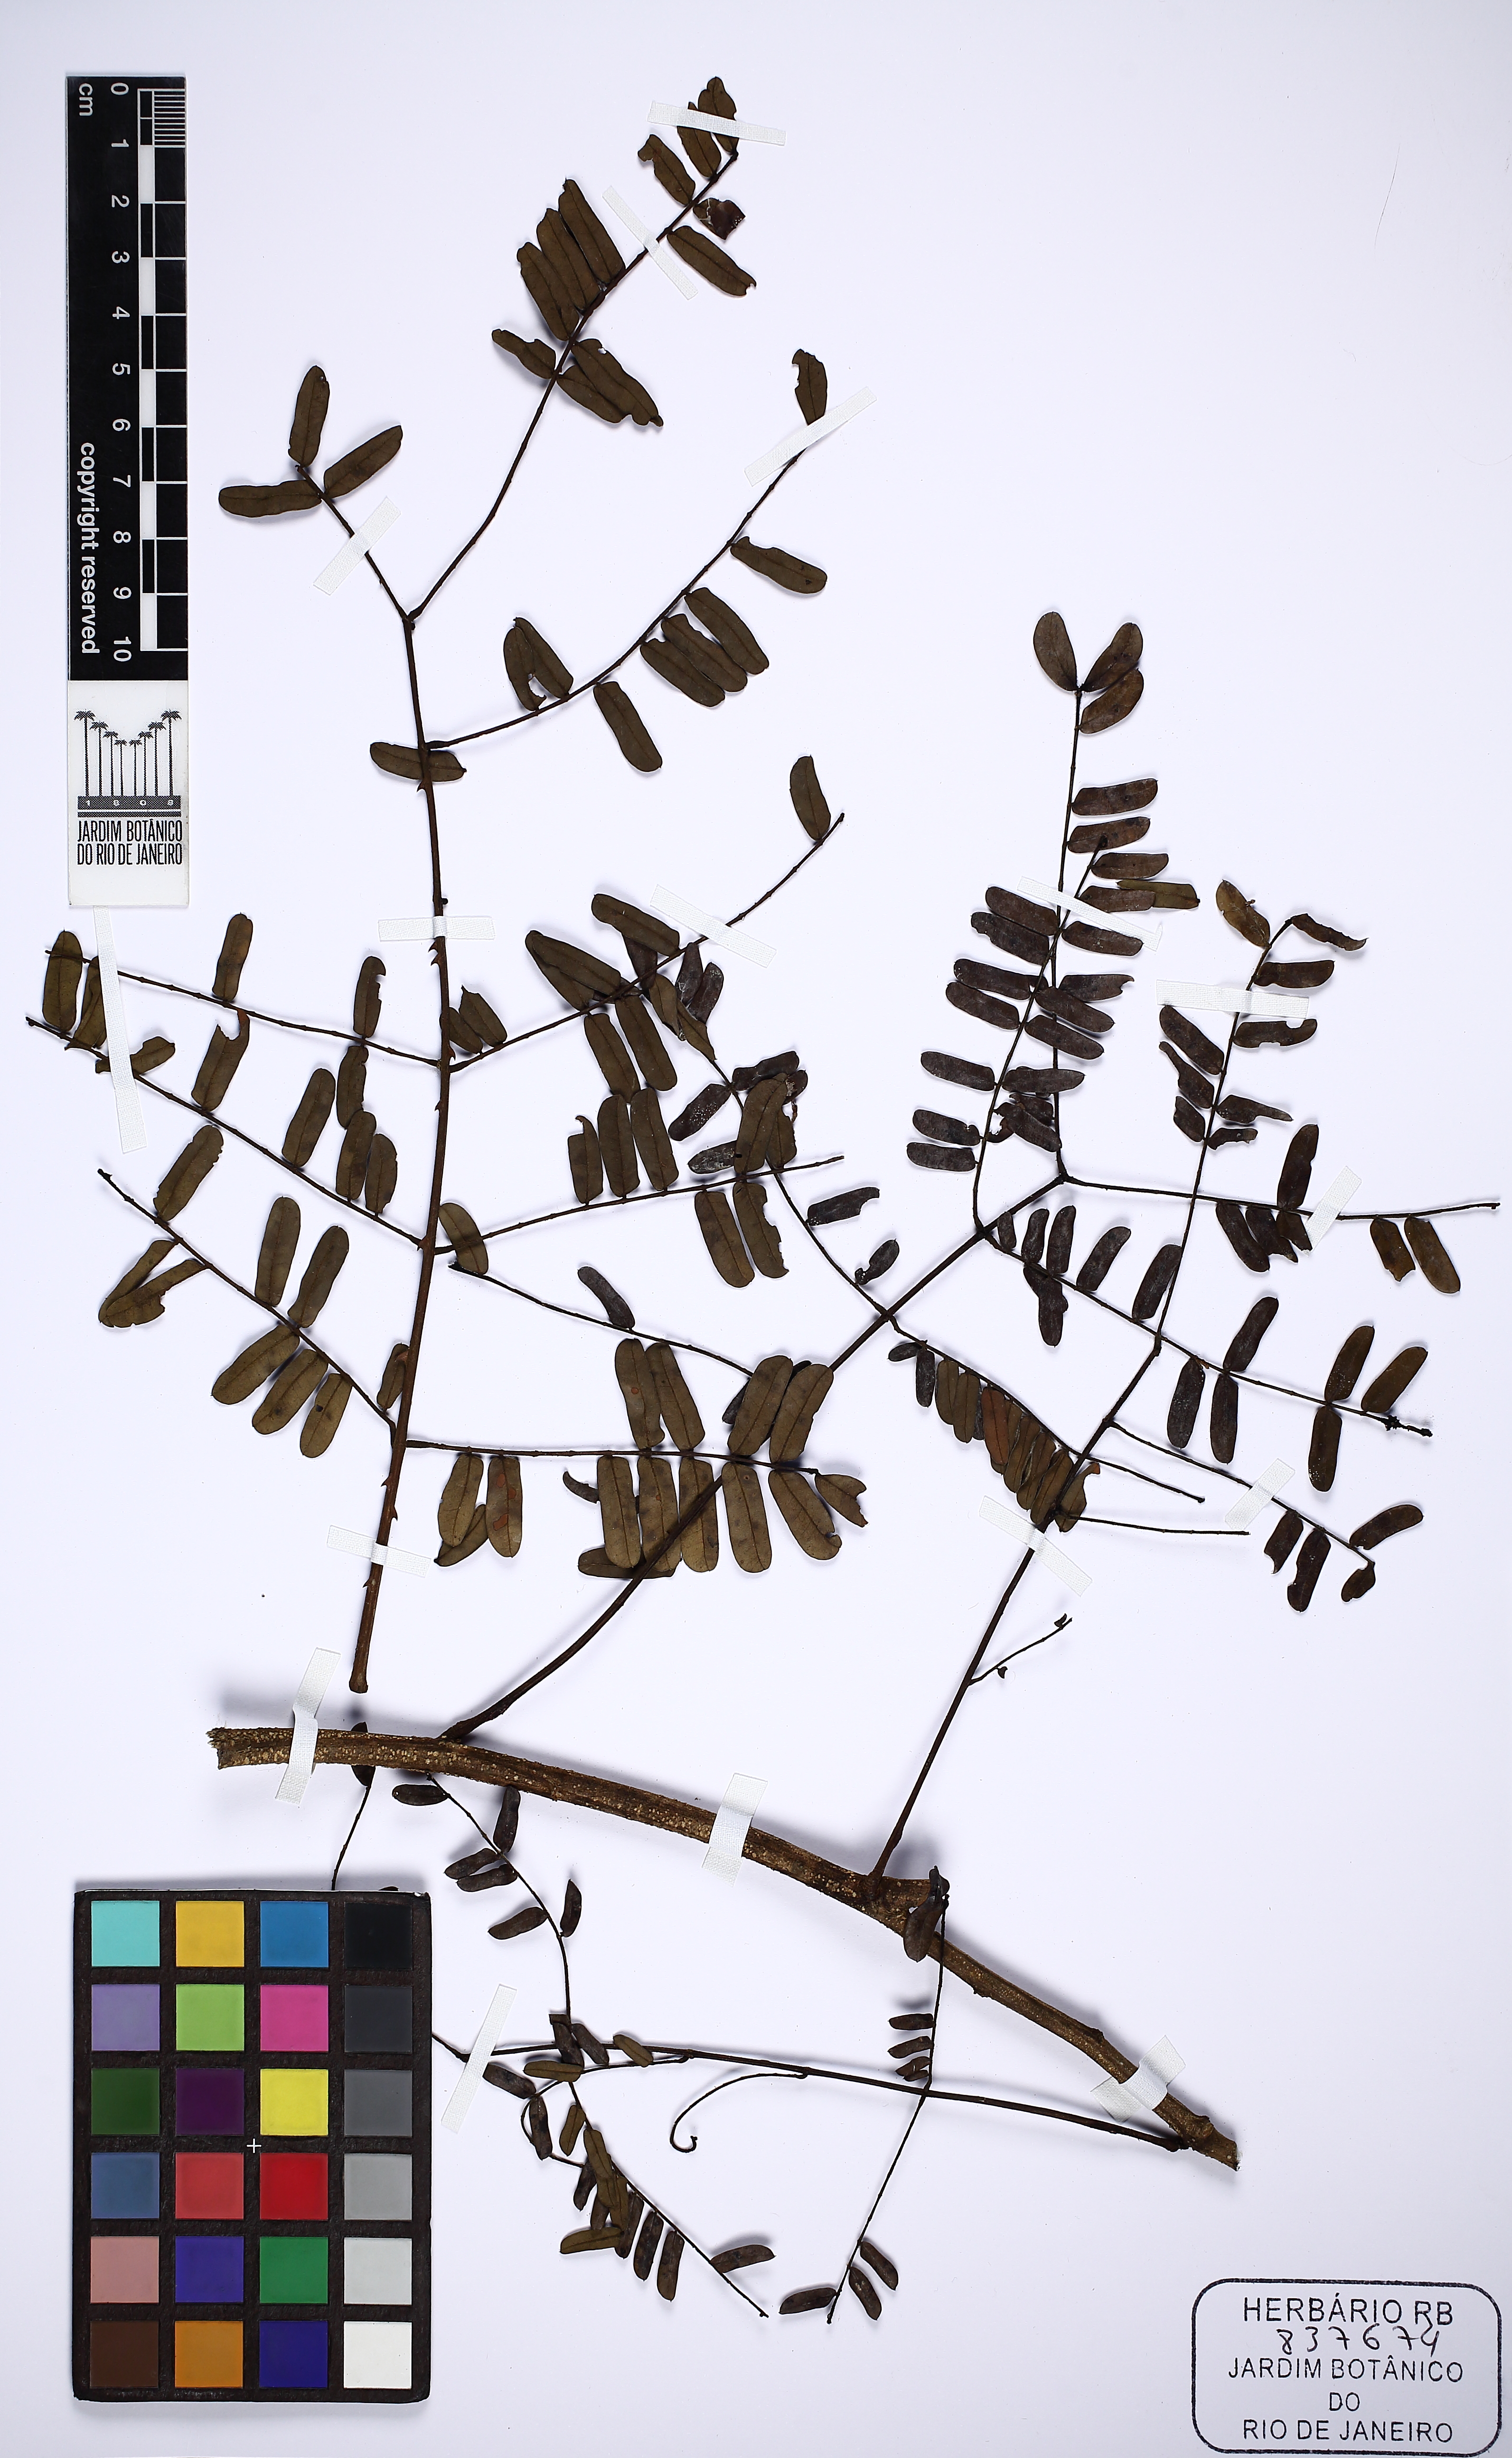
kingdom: Plantae
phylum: Tracheophyta
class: Magnoliopsida
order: Fabales
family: Fabaceae
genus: Piptadenia
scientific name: Piptadenia anolidurus
